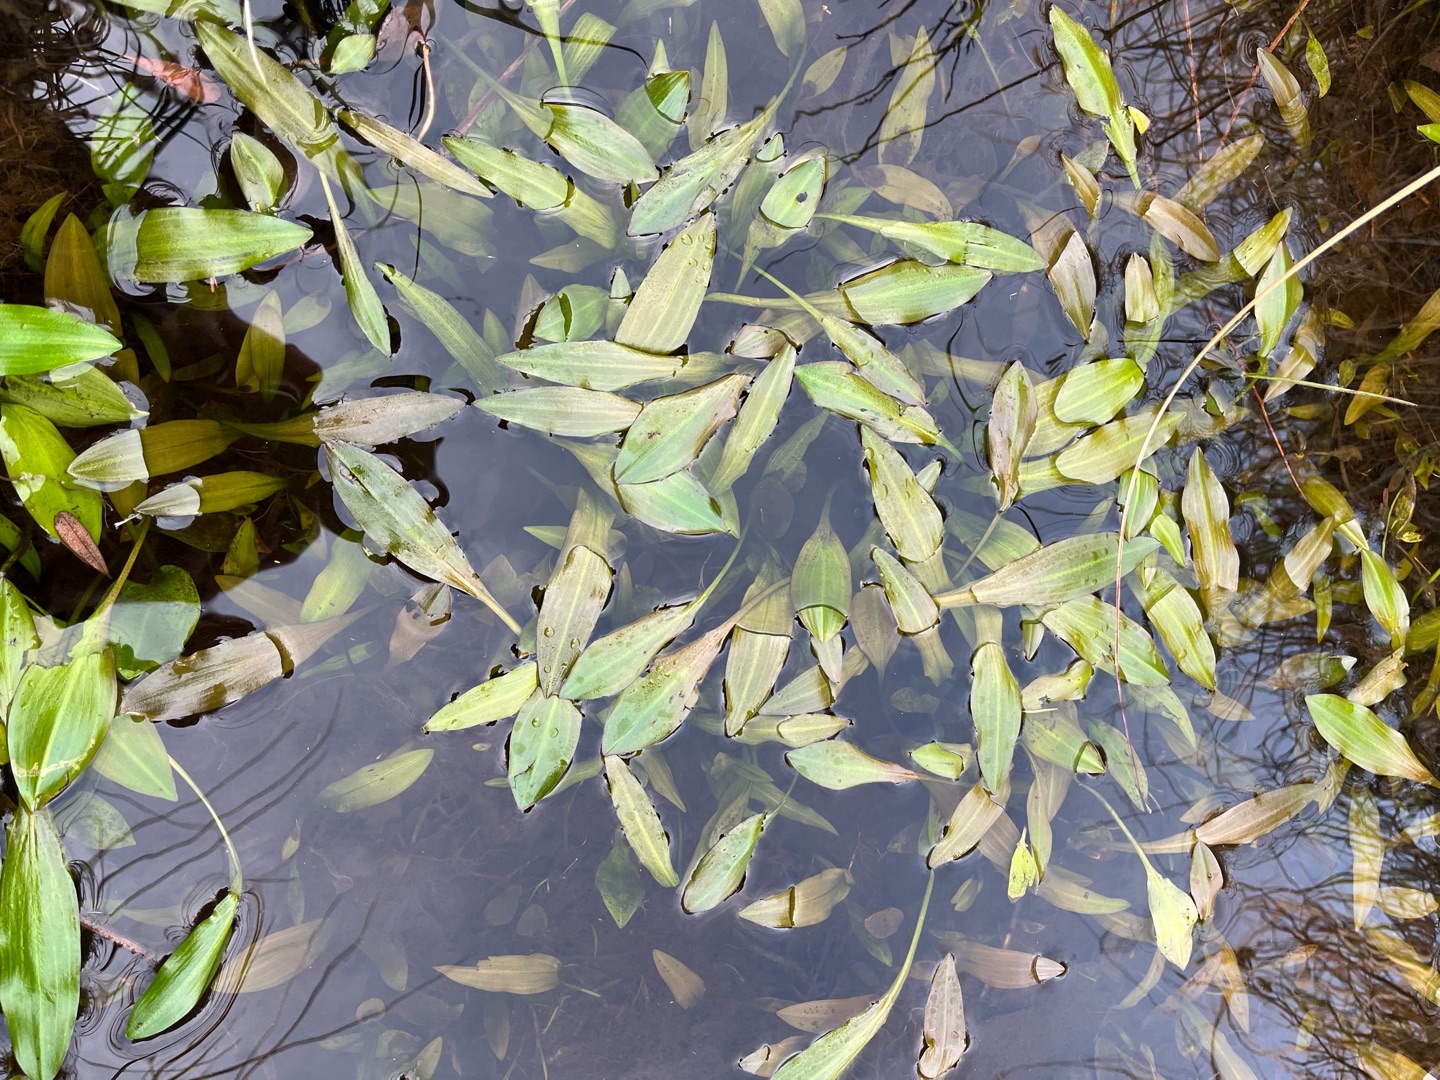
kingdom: Plantae
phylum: Tracheophyta
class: Liliopsida
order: Alismatales
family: Potamogetonaceae
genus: Potamogeton
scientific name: Potamogeton polygonifolius
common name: Aflangbladet vandaks
